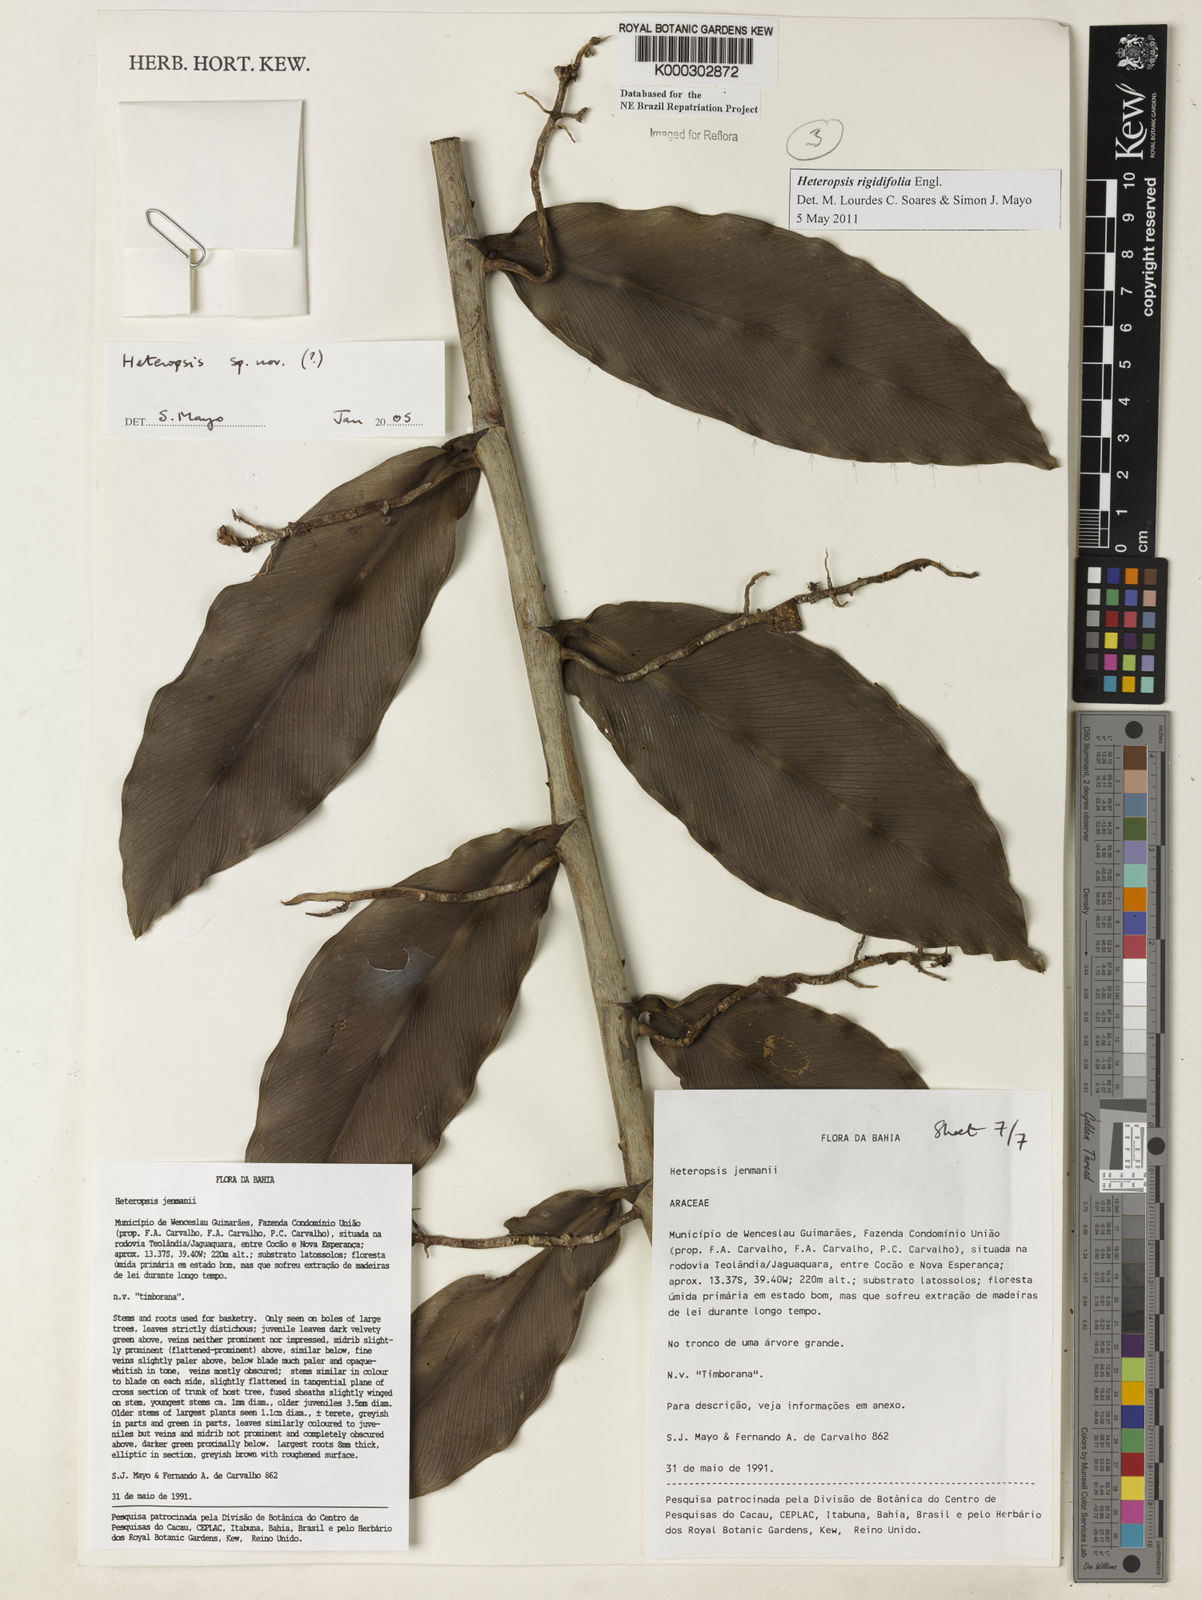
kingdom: Plantae
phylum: Tracheophyta
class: Liliopsida
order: Alismatales
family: Araceae
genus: Heteropsis
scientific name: Heteropsis
